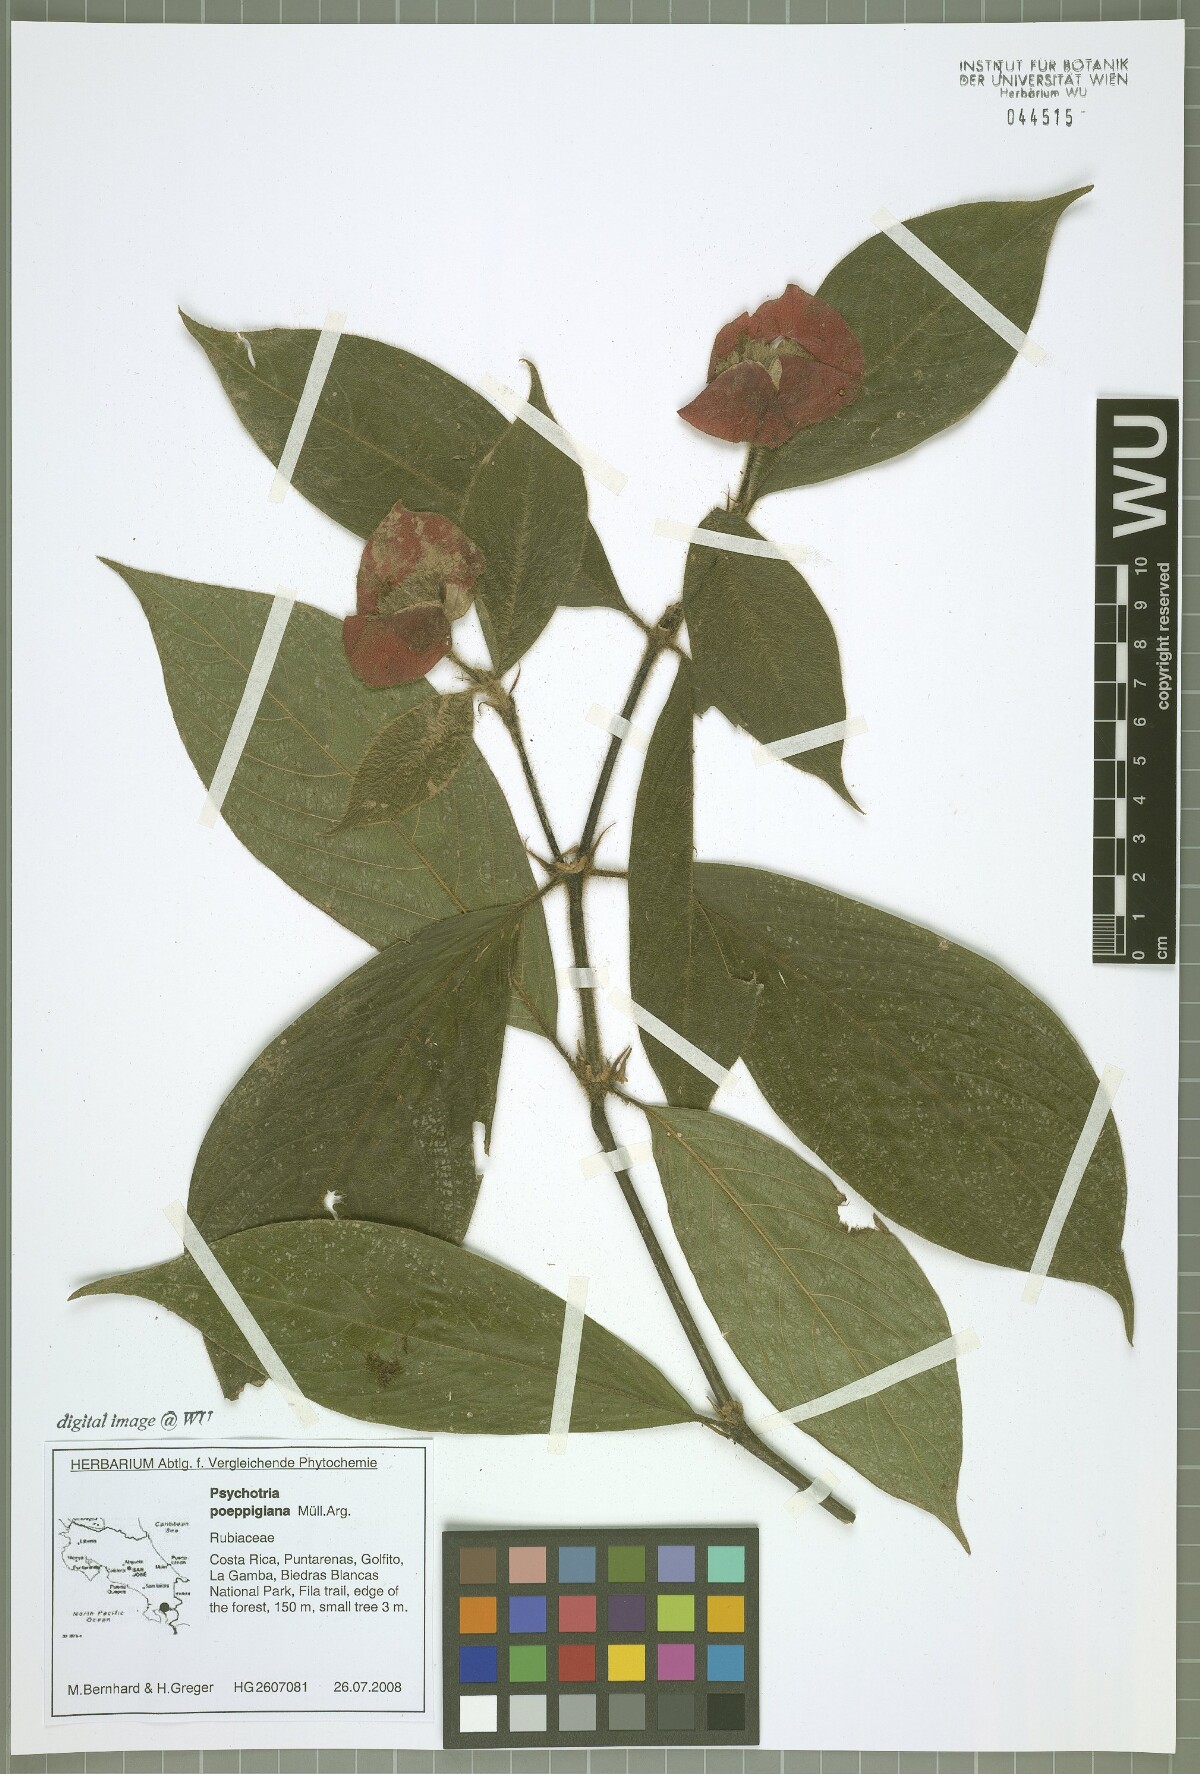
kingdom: Plantae
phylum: Tracheophyta
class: Magnoliopsida
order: Gentianales
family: Rubiaceae
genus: Palicourea
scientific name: Palicourea tomentosa
